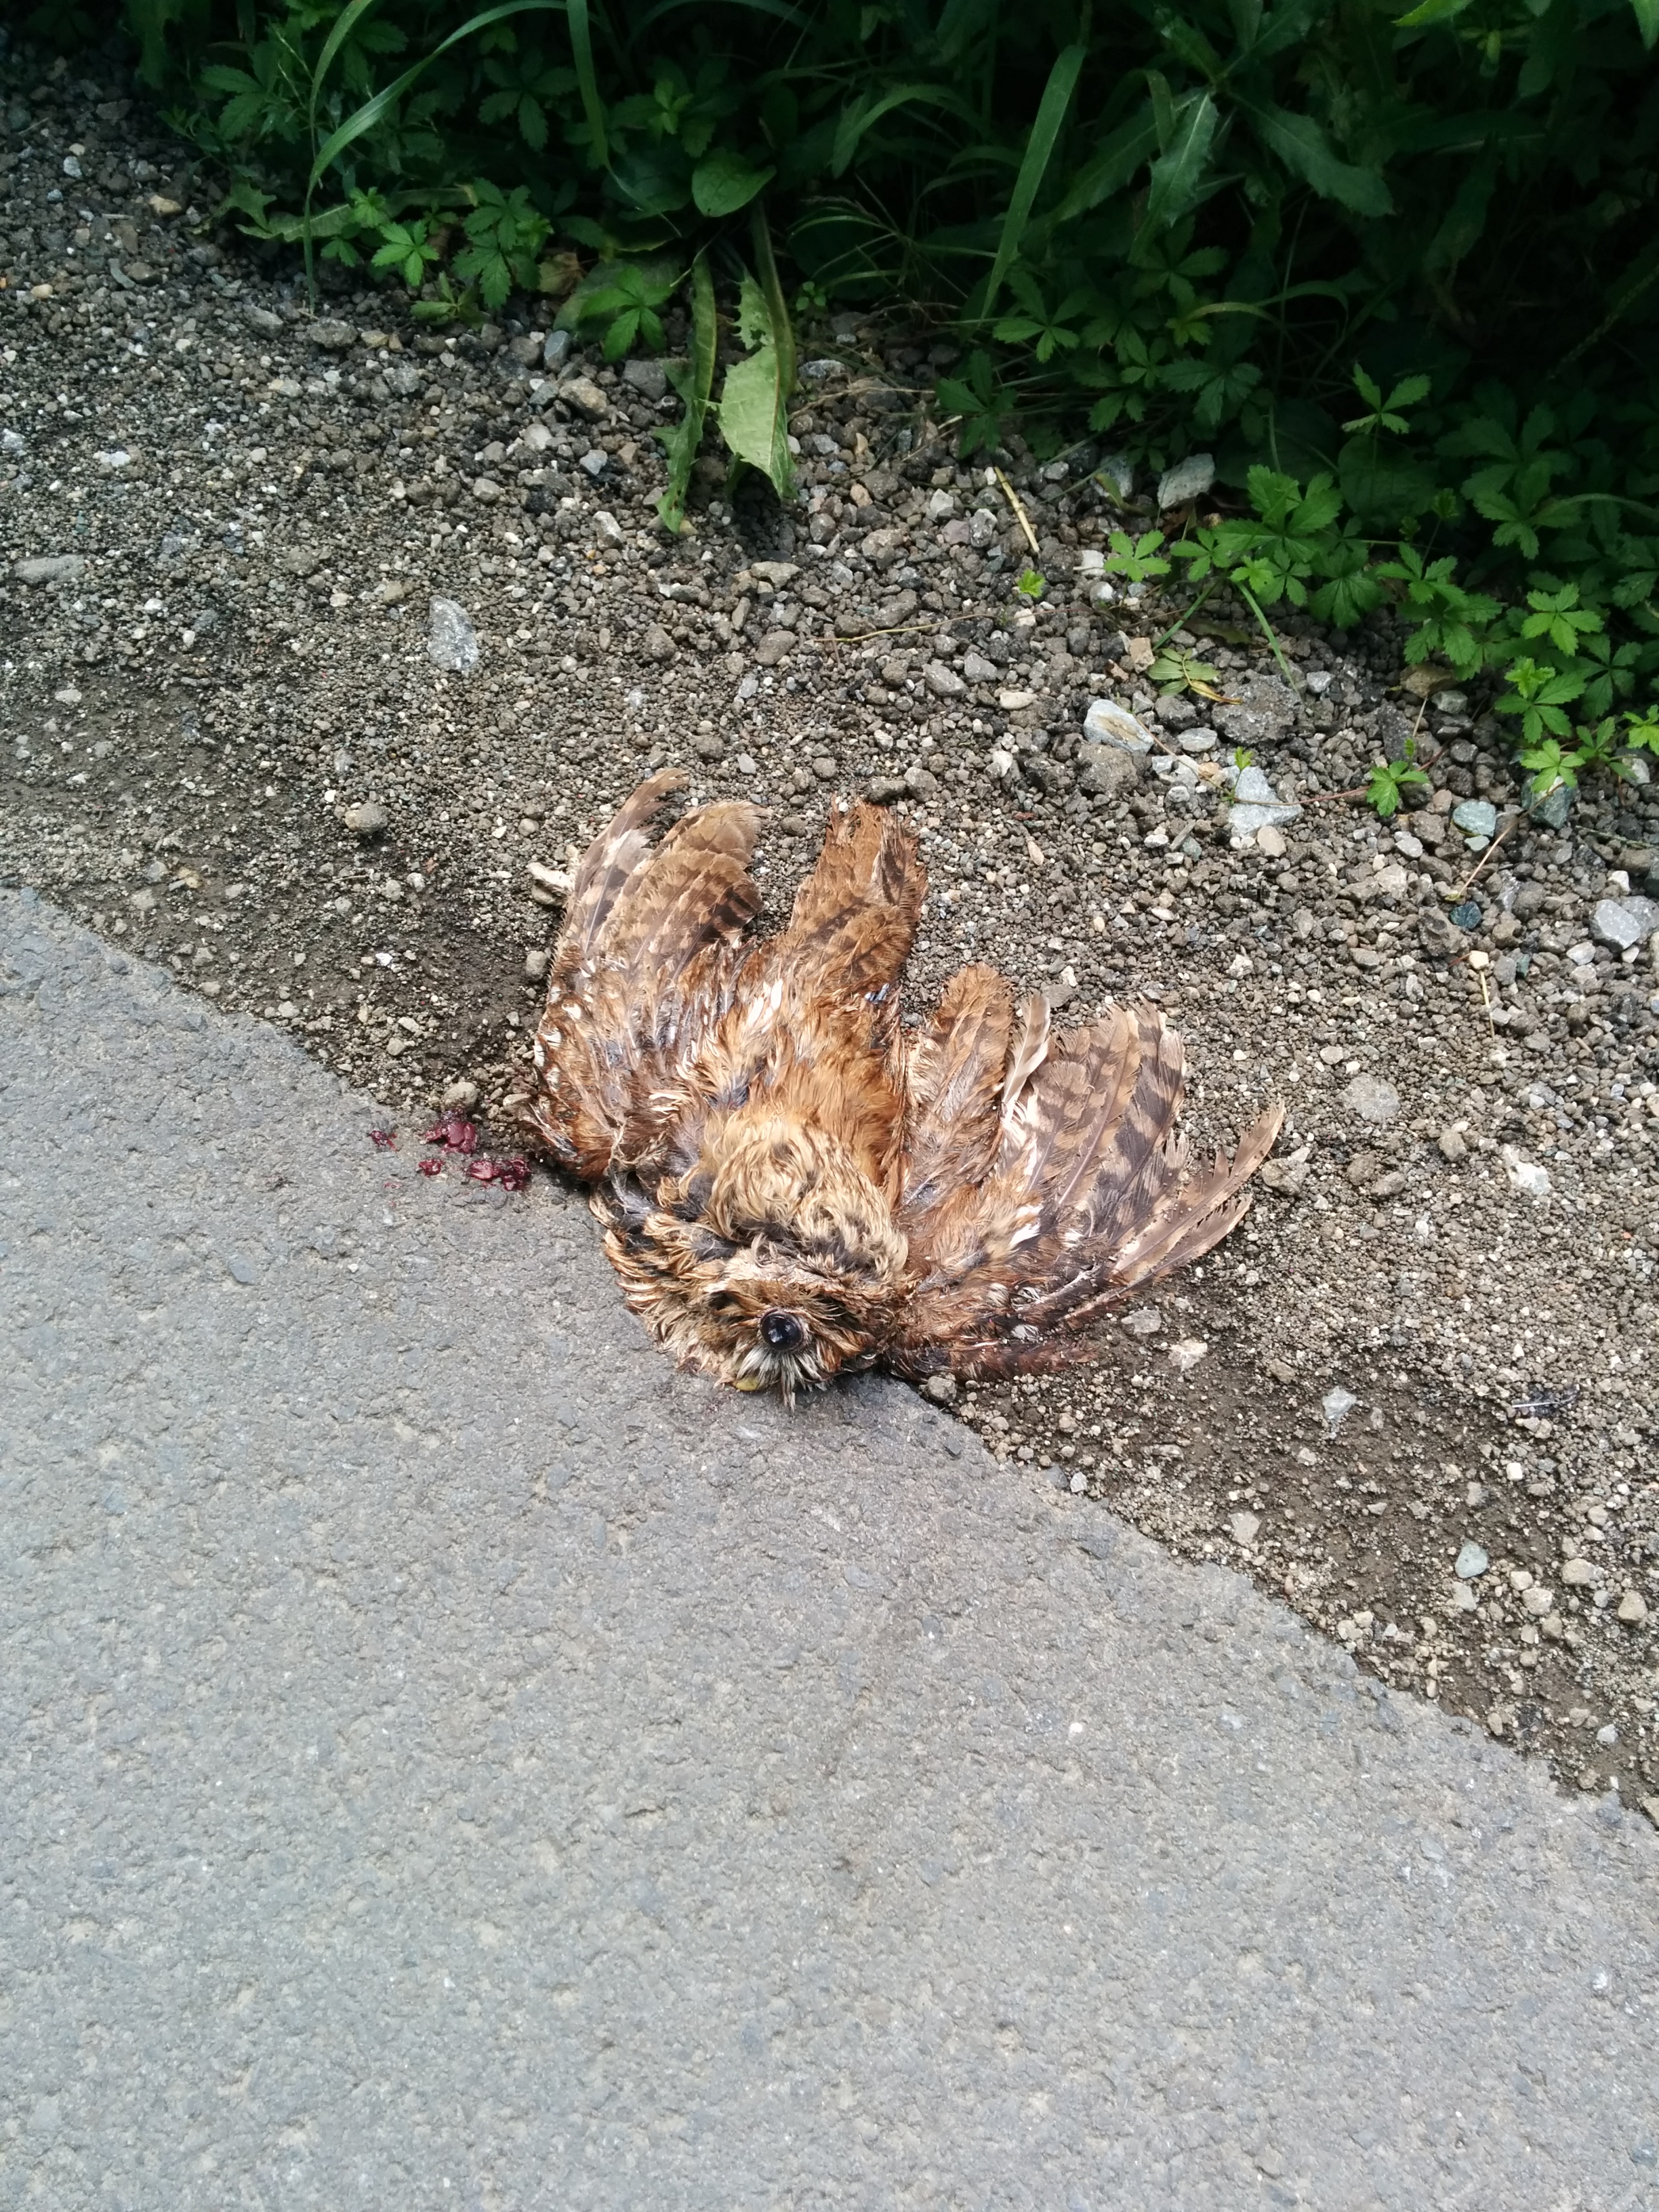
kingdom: Animalia
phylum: Chordata
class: Aves
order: Strigiformes
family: Strigidae
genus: Strix
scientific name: Strix aluco
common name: Tawny owl
